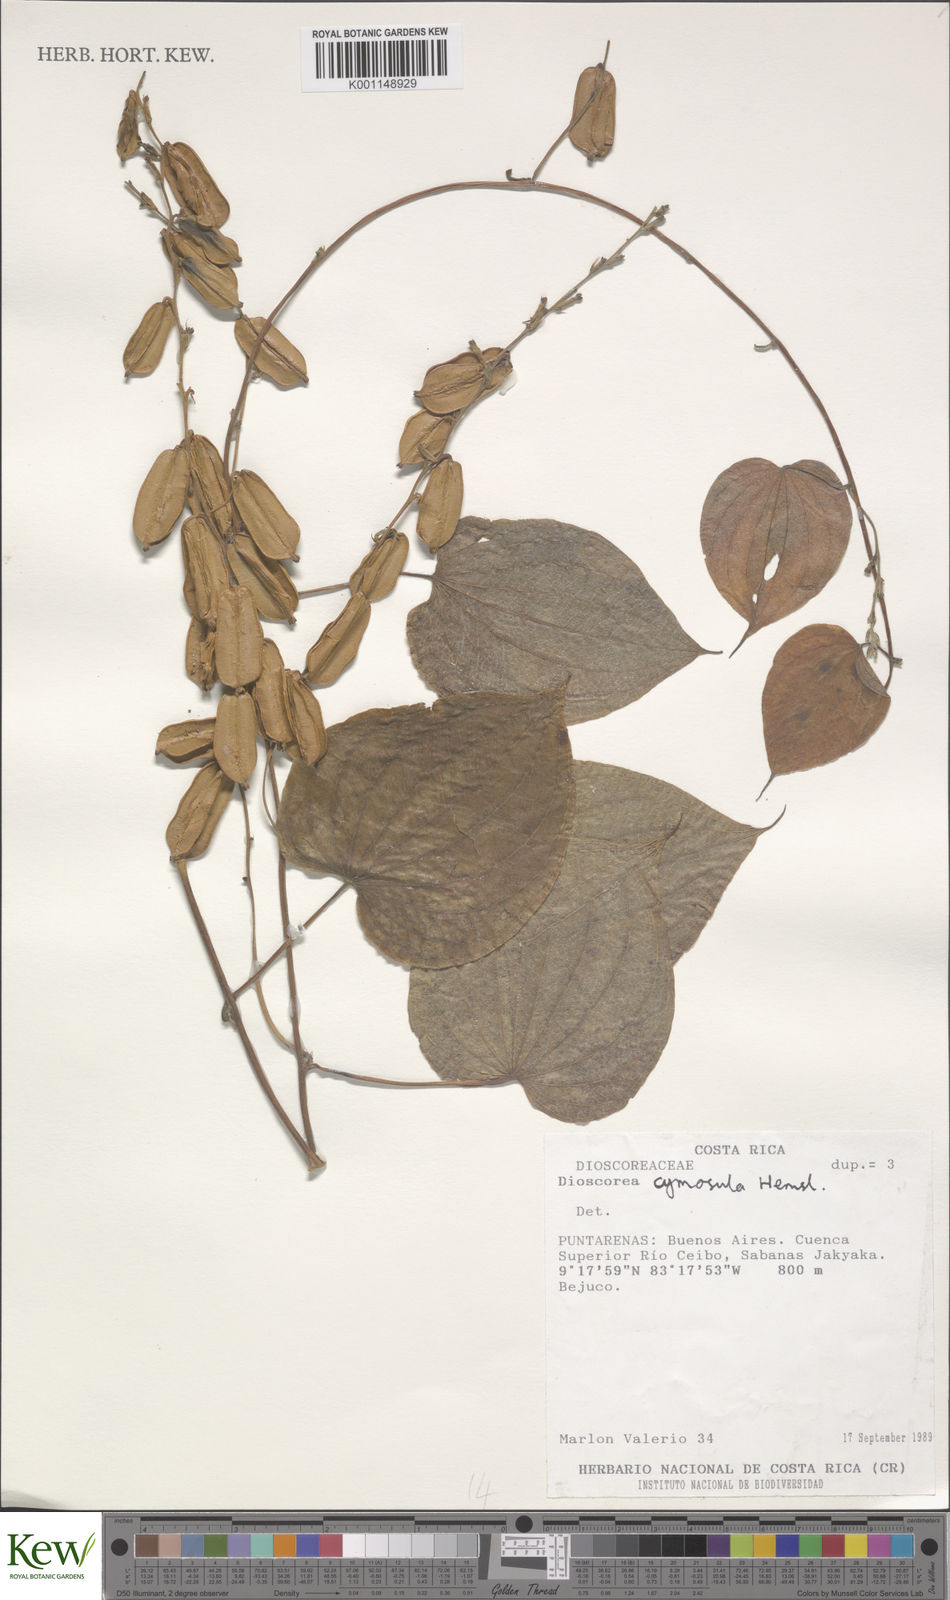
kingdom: Plantae
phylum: Tracheophyta
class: Liliopsida
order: Dioscoreales
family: Dioscoreaceae
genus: Dioscorea
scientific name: Dioscorea remotiflora
